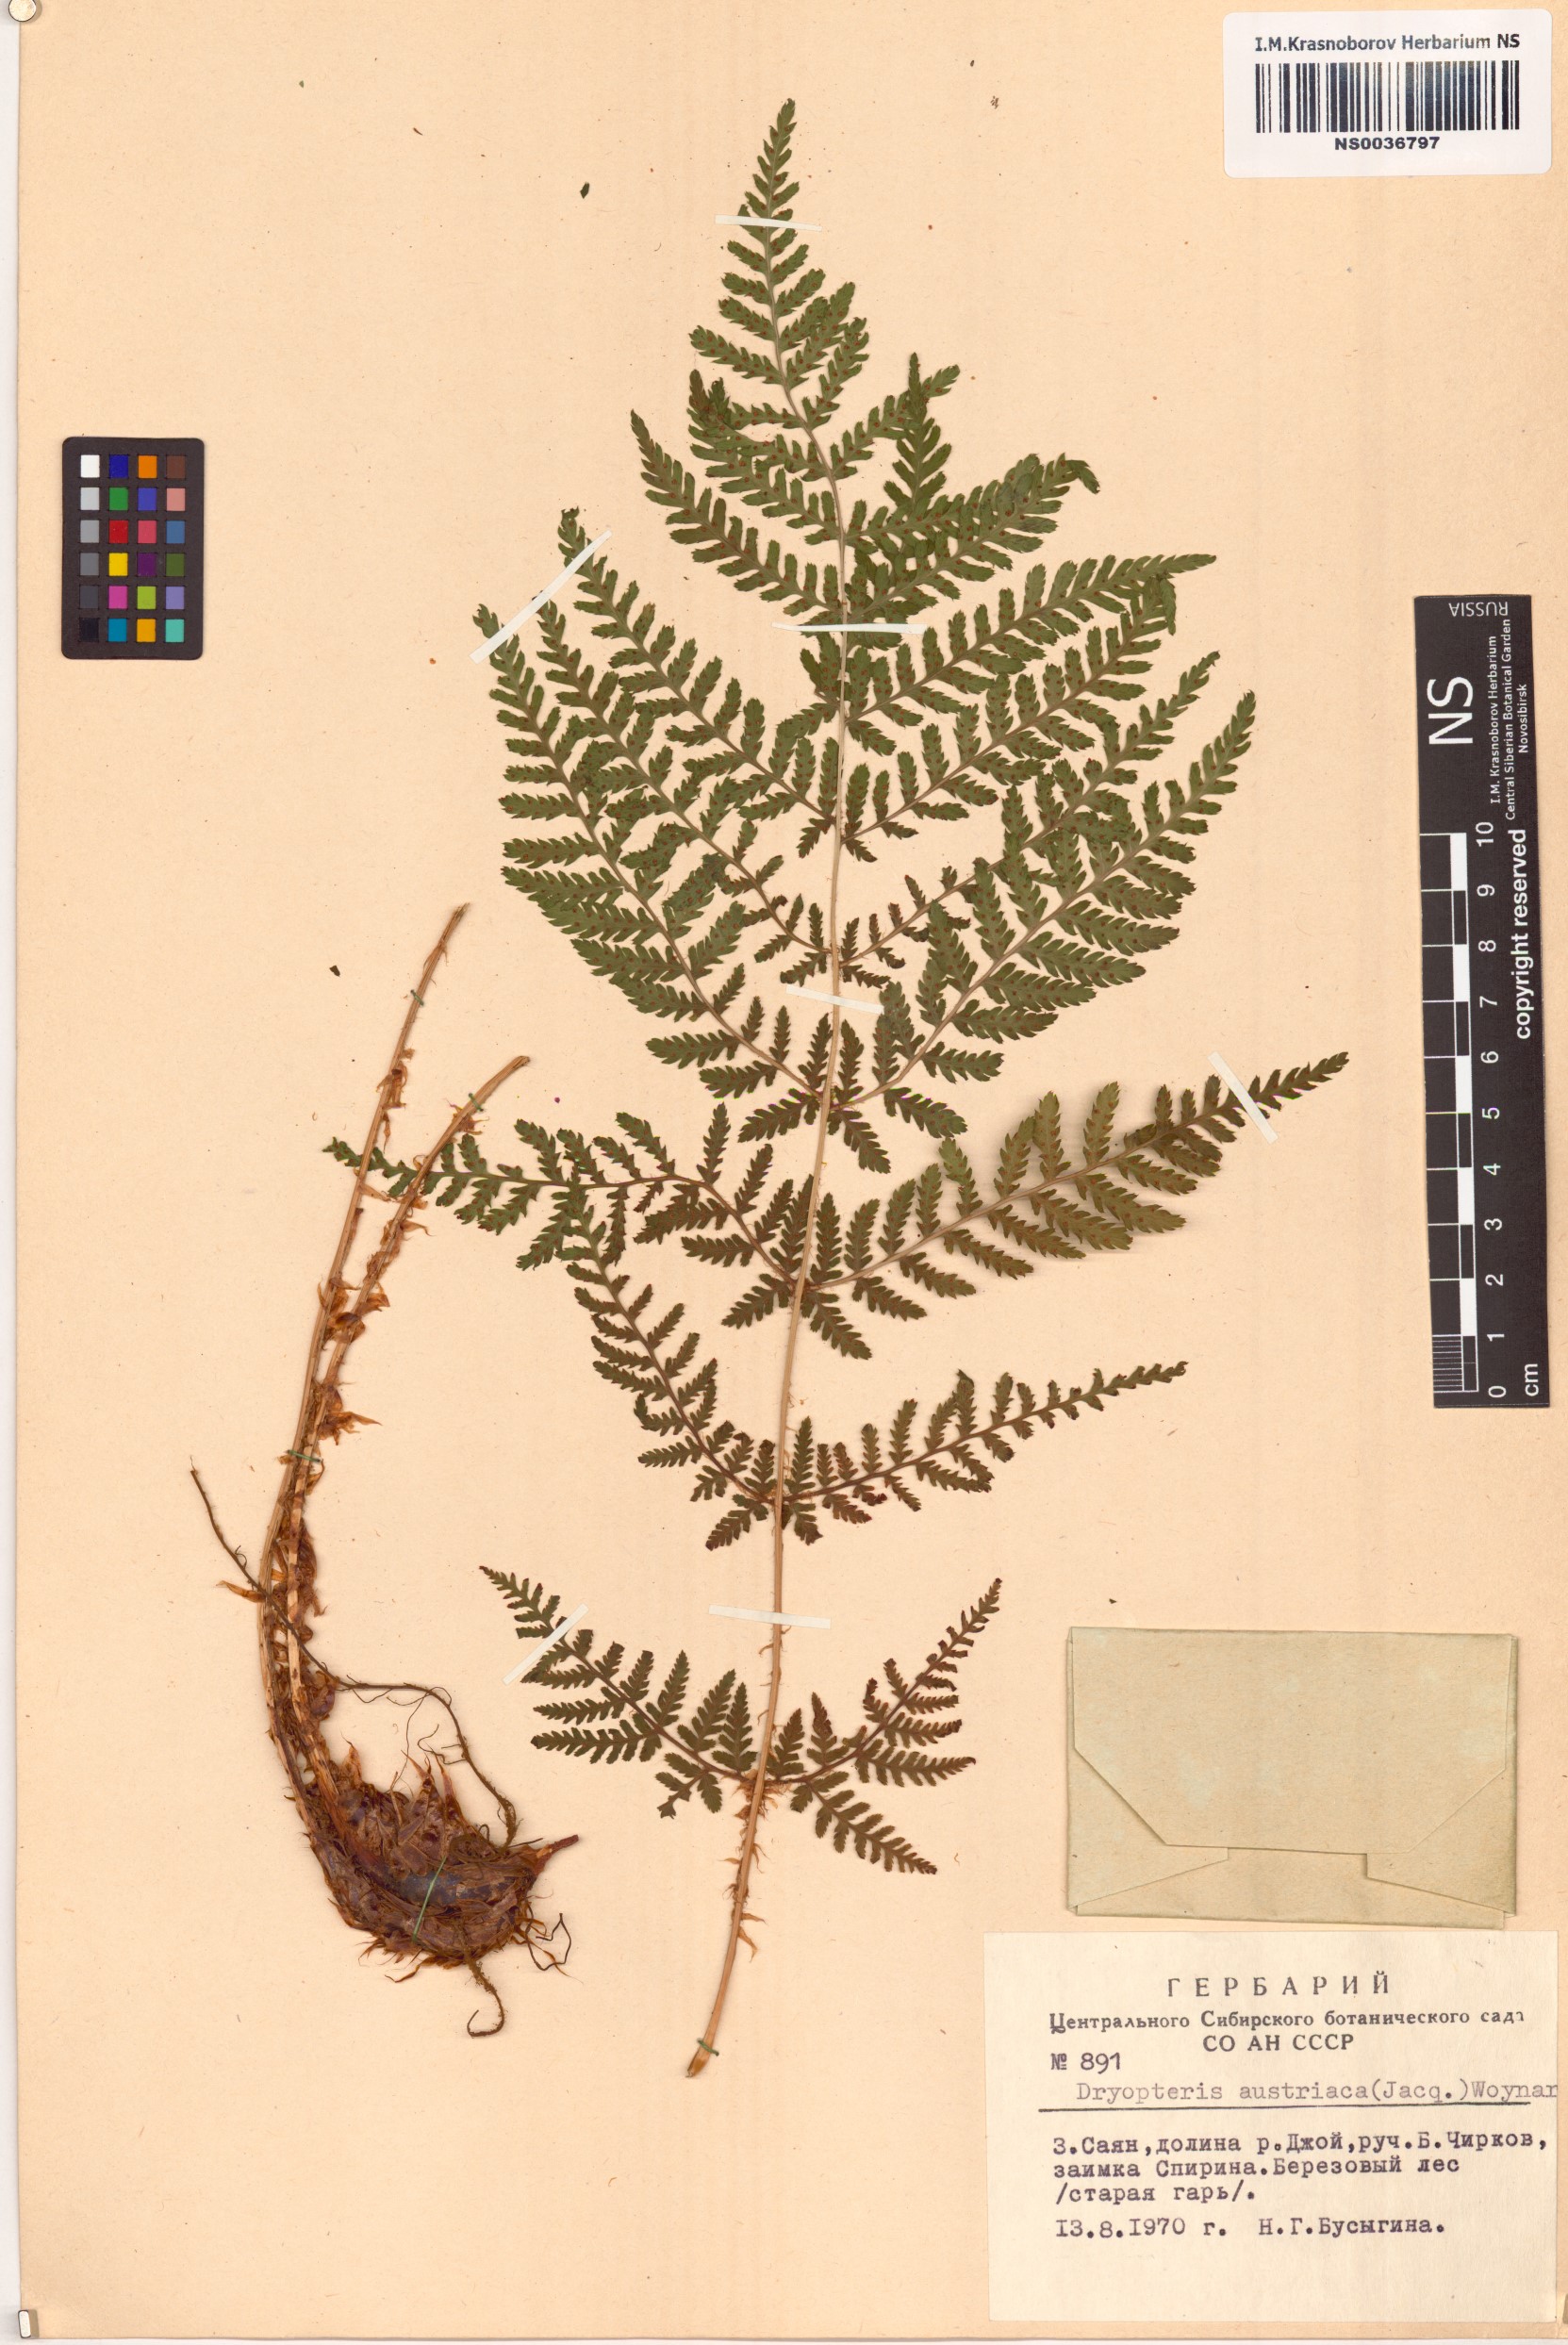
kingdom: Plantae
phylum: Tracheophyta
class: Polypodiopsida
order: Polypodiales
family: Dryopteridaceae
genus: Dryopteris
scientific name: Dryopteris dilatata
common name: Broad buckler-fern
